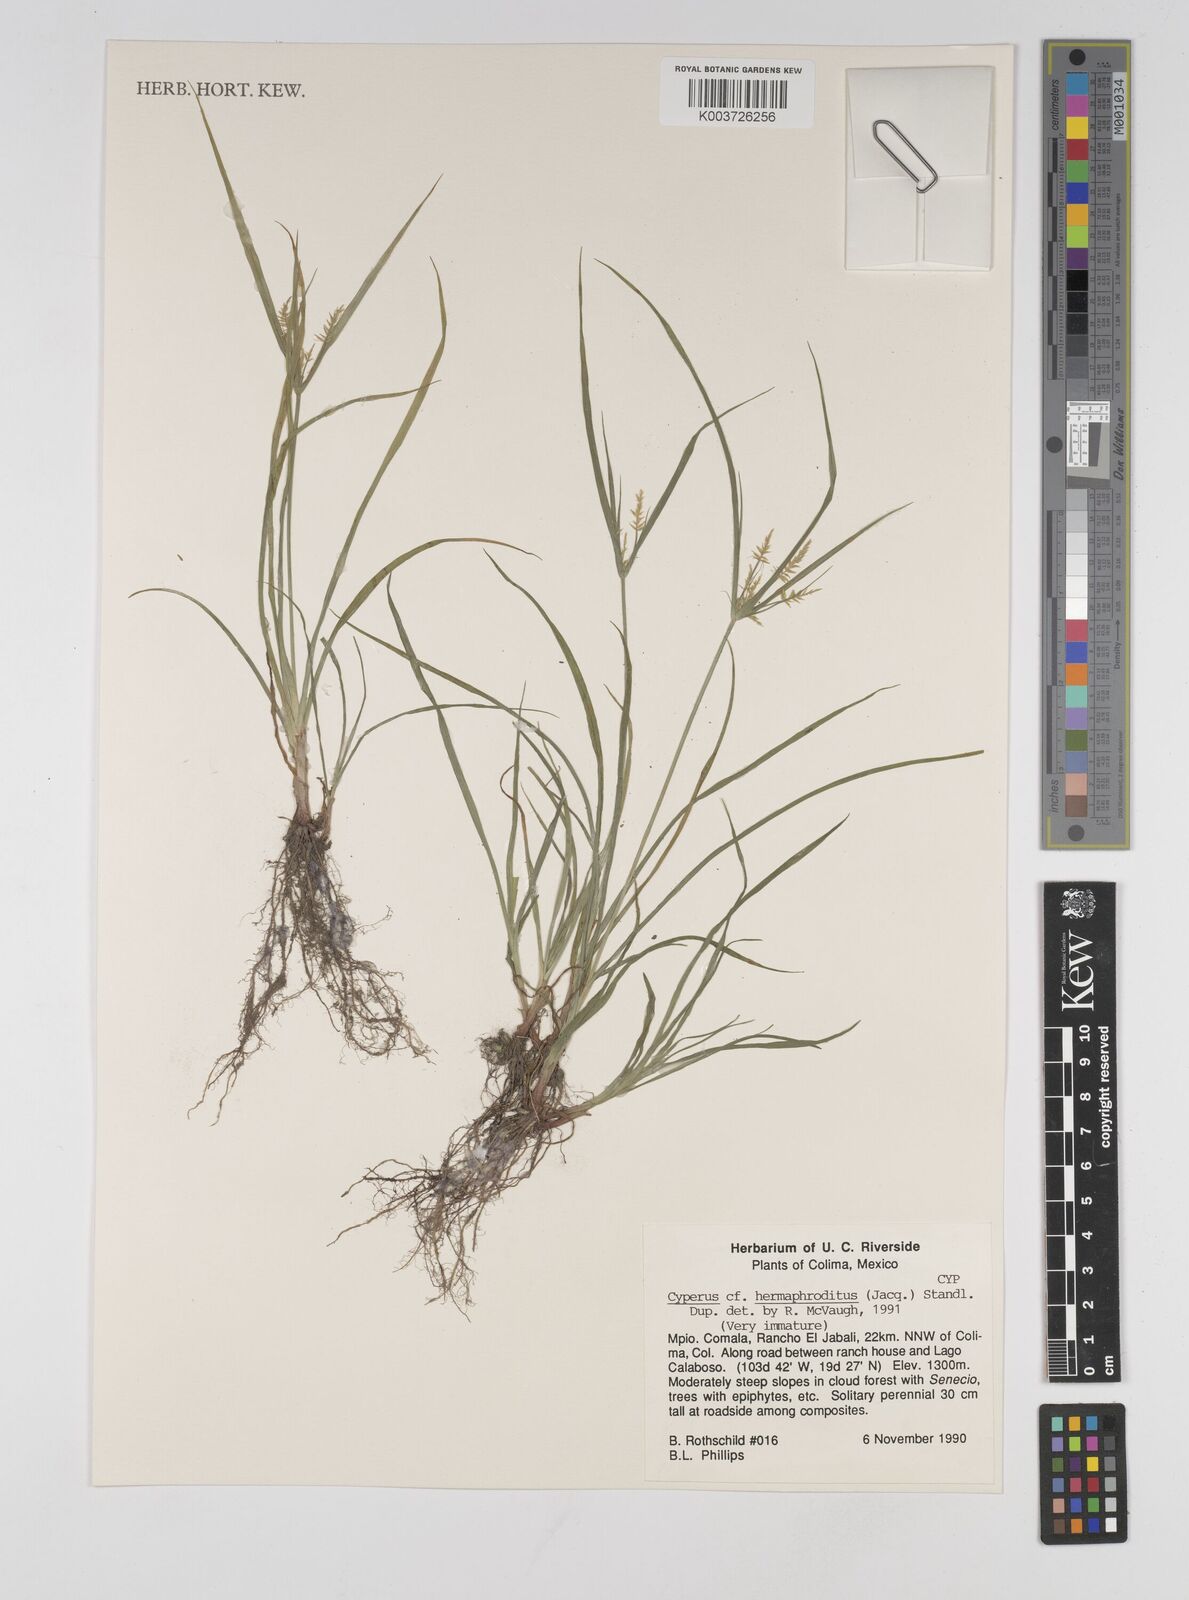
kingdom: Plantae
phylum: Tracheophyta
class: Liliopsida
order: Poales
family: Cyperaceae
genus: Cyperus
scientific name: Cyperus hermaphroditus
